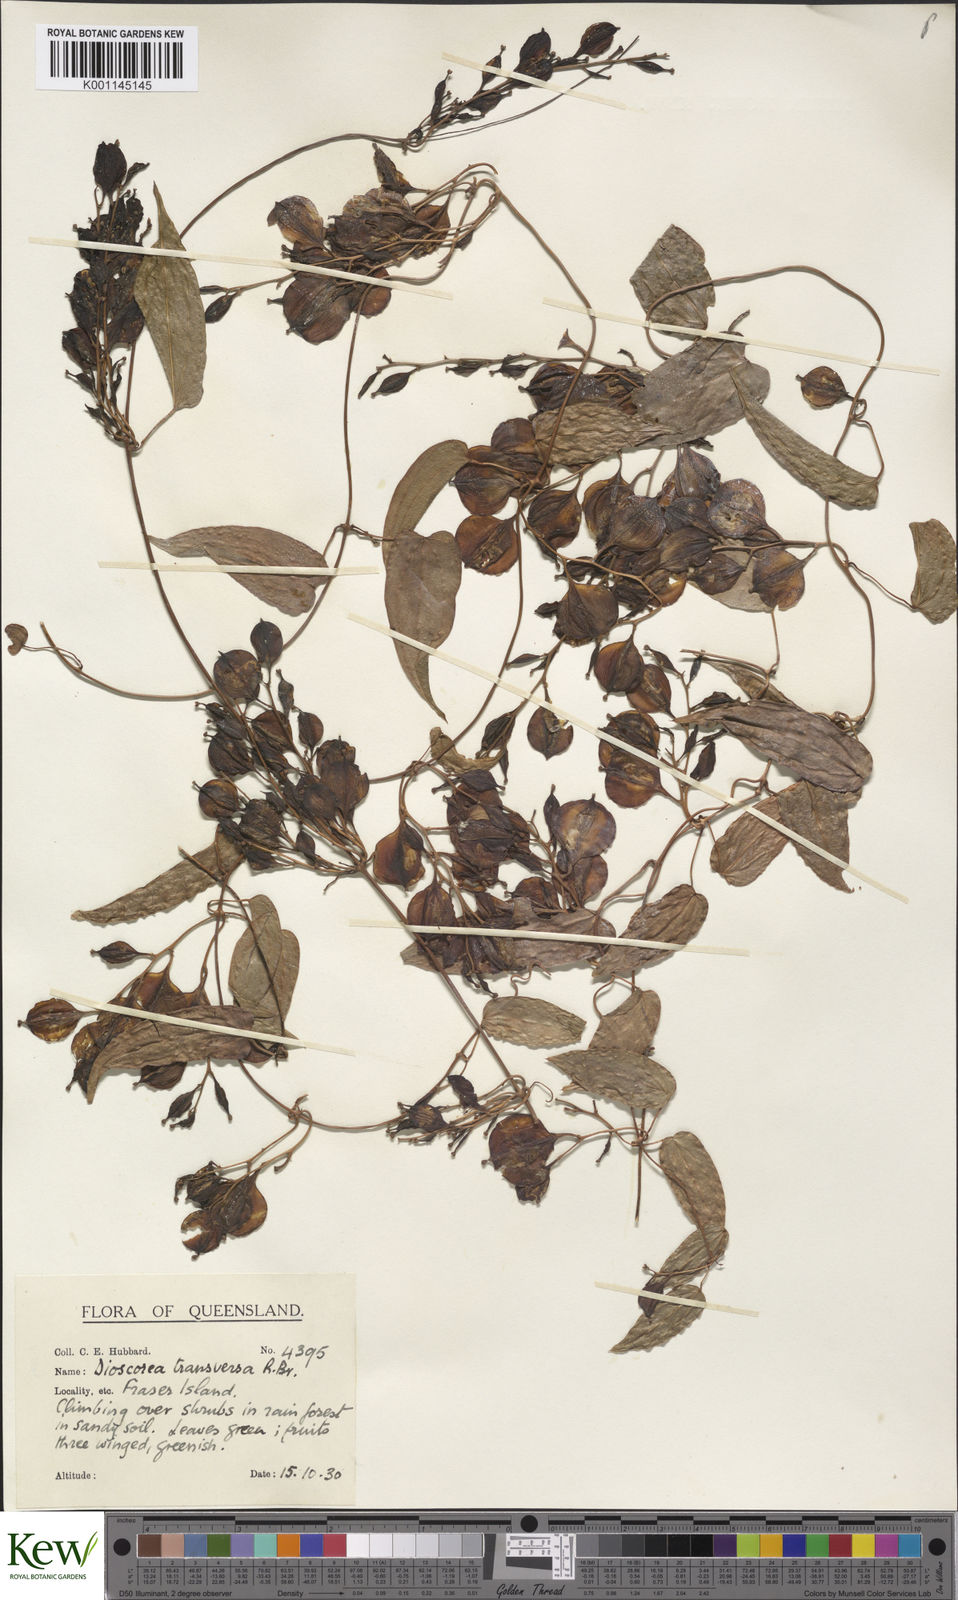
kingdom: Plantae
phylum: Tracheophyta
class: Liliopsida
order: Dioscoreales
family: Dioscoreaceae
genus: Dioscorea
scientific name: Dioscorea transversa
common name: Long yam
